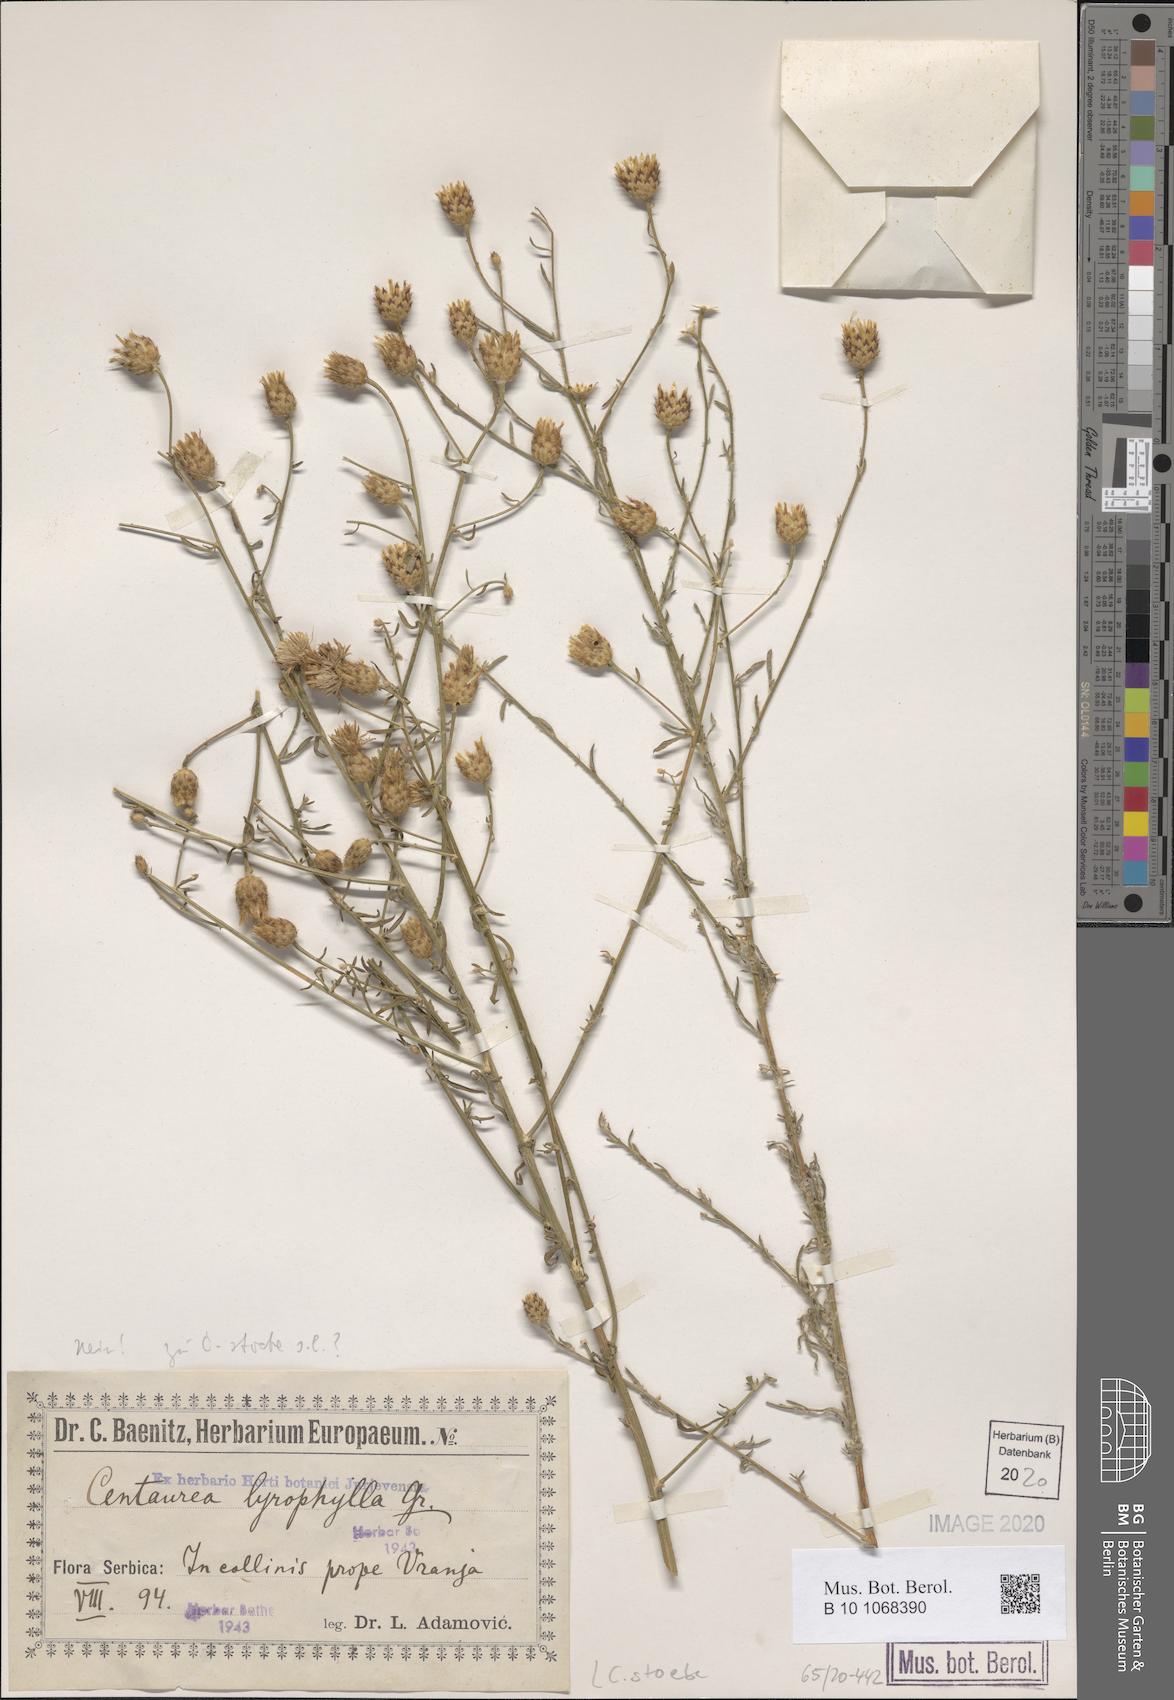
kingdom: Plantae
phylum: Tracheophyta
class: Magnoliopsida
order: Asterales
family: Asteraceae
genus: Centaurea
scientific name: Centaurea stoebe
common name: Spotted knapweed
